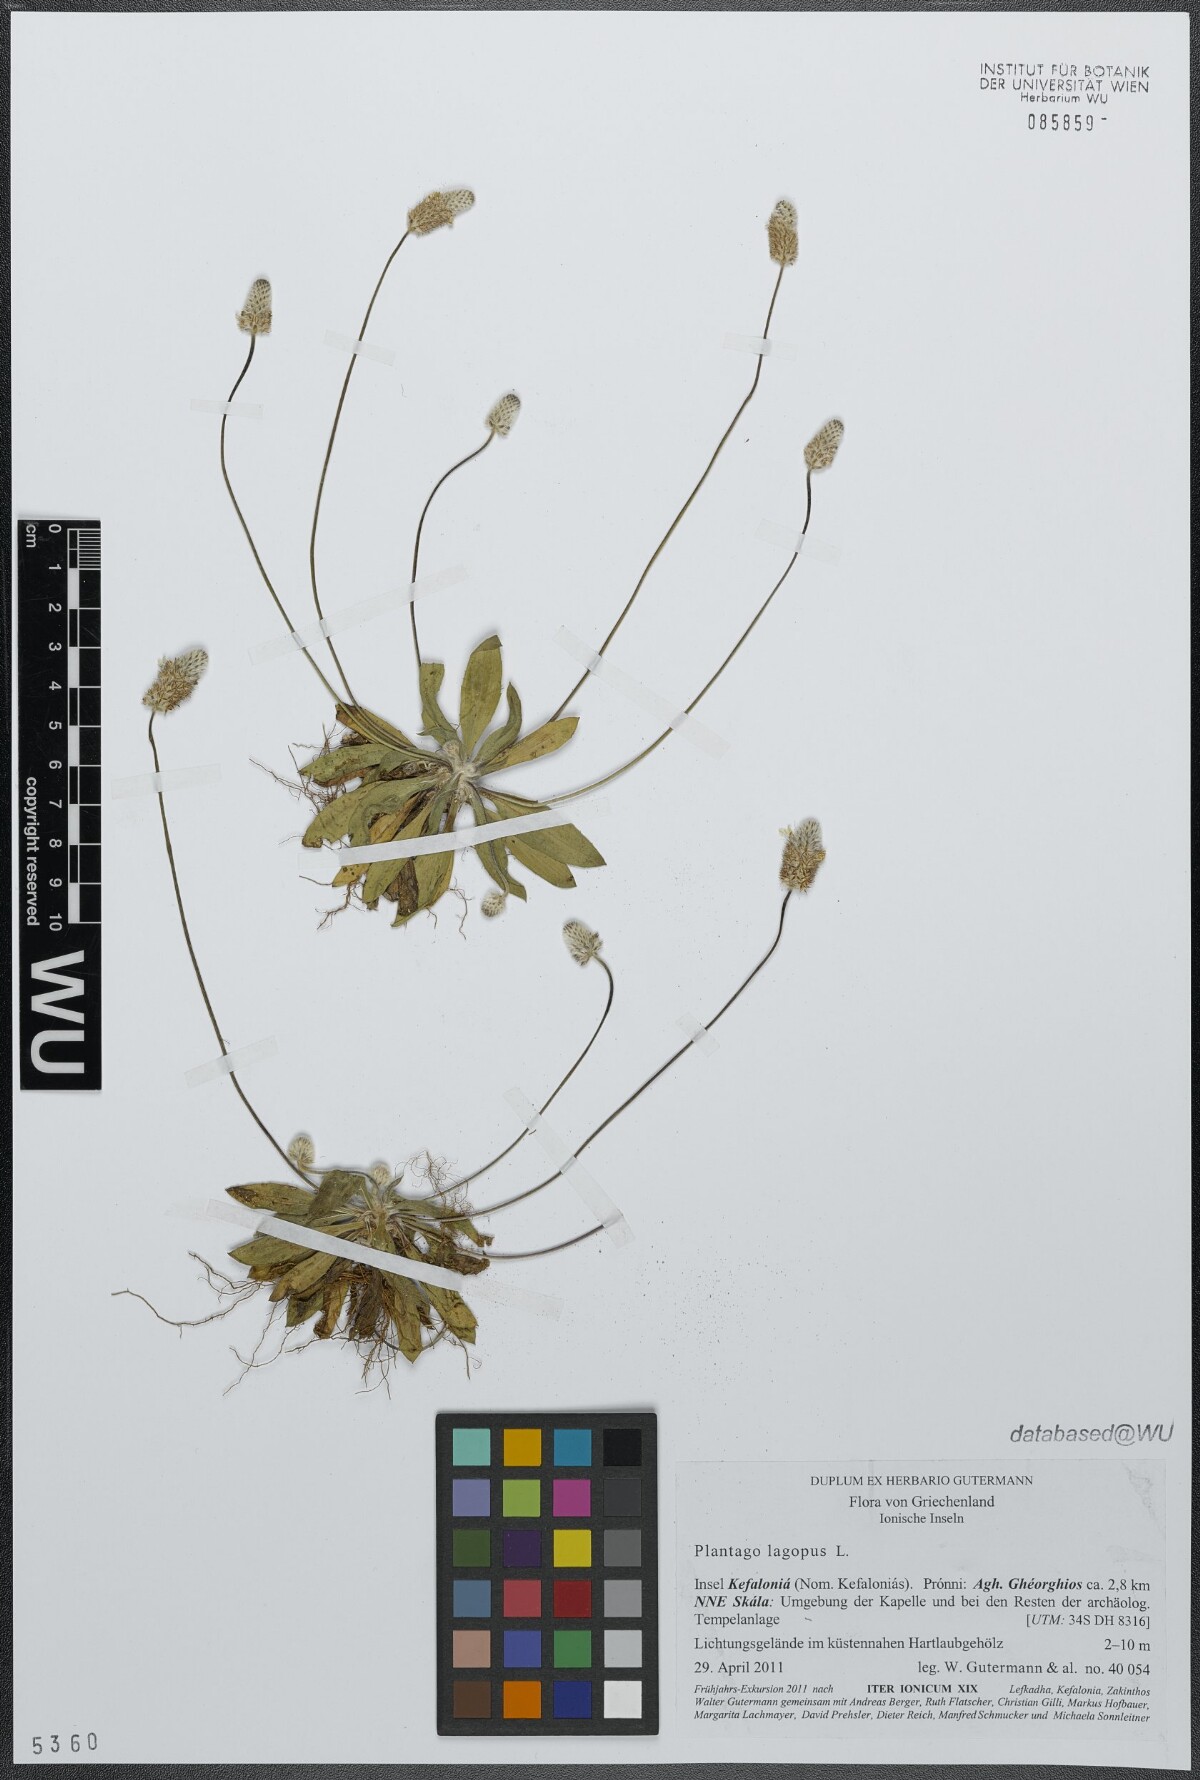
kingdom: Plantae
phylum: Tracheophyta
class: Magnoliopsida
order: Lamiales
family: Plantaginaceae
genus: Plantago
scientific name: Plantago lagopus
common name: Hare-foot plantain
